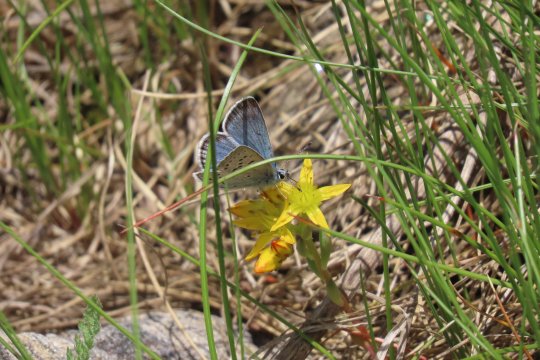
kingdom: Animalia
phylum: Arthropoda
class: Insecta
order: Lepidoptera
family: Lycaenidae
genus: Plebejus
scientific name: Plebejus saepiolus
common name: Greenish Blue
